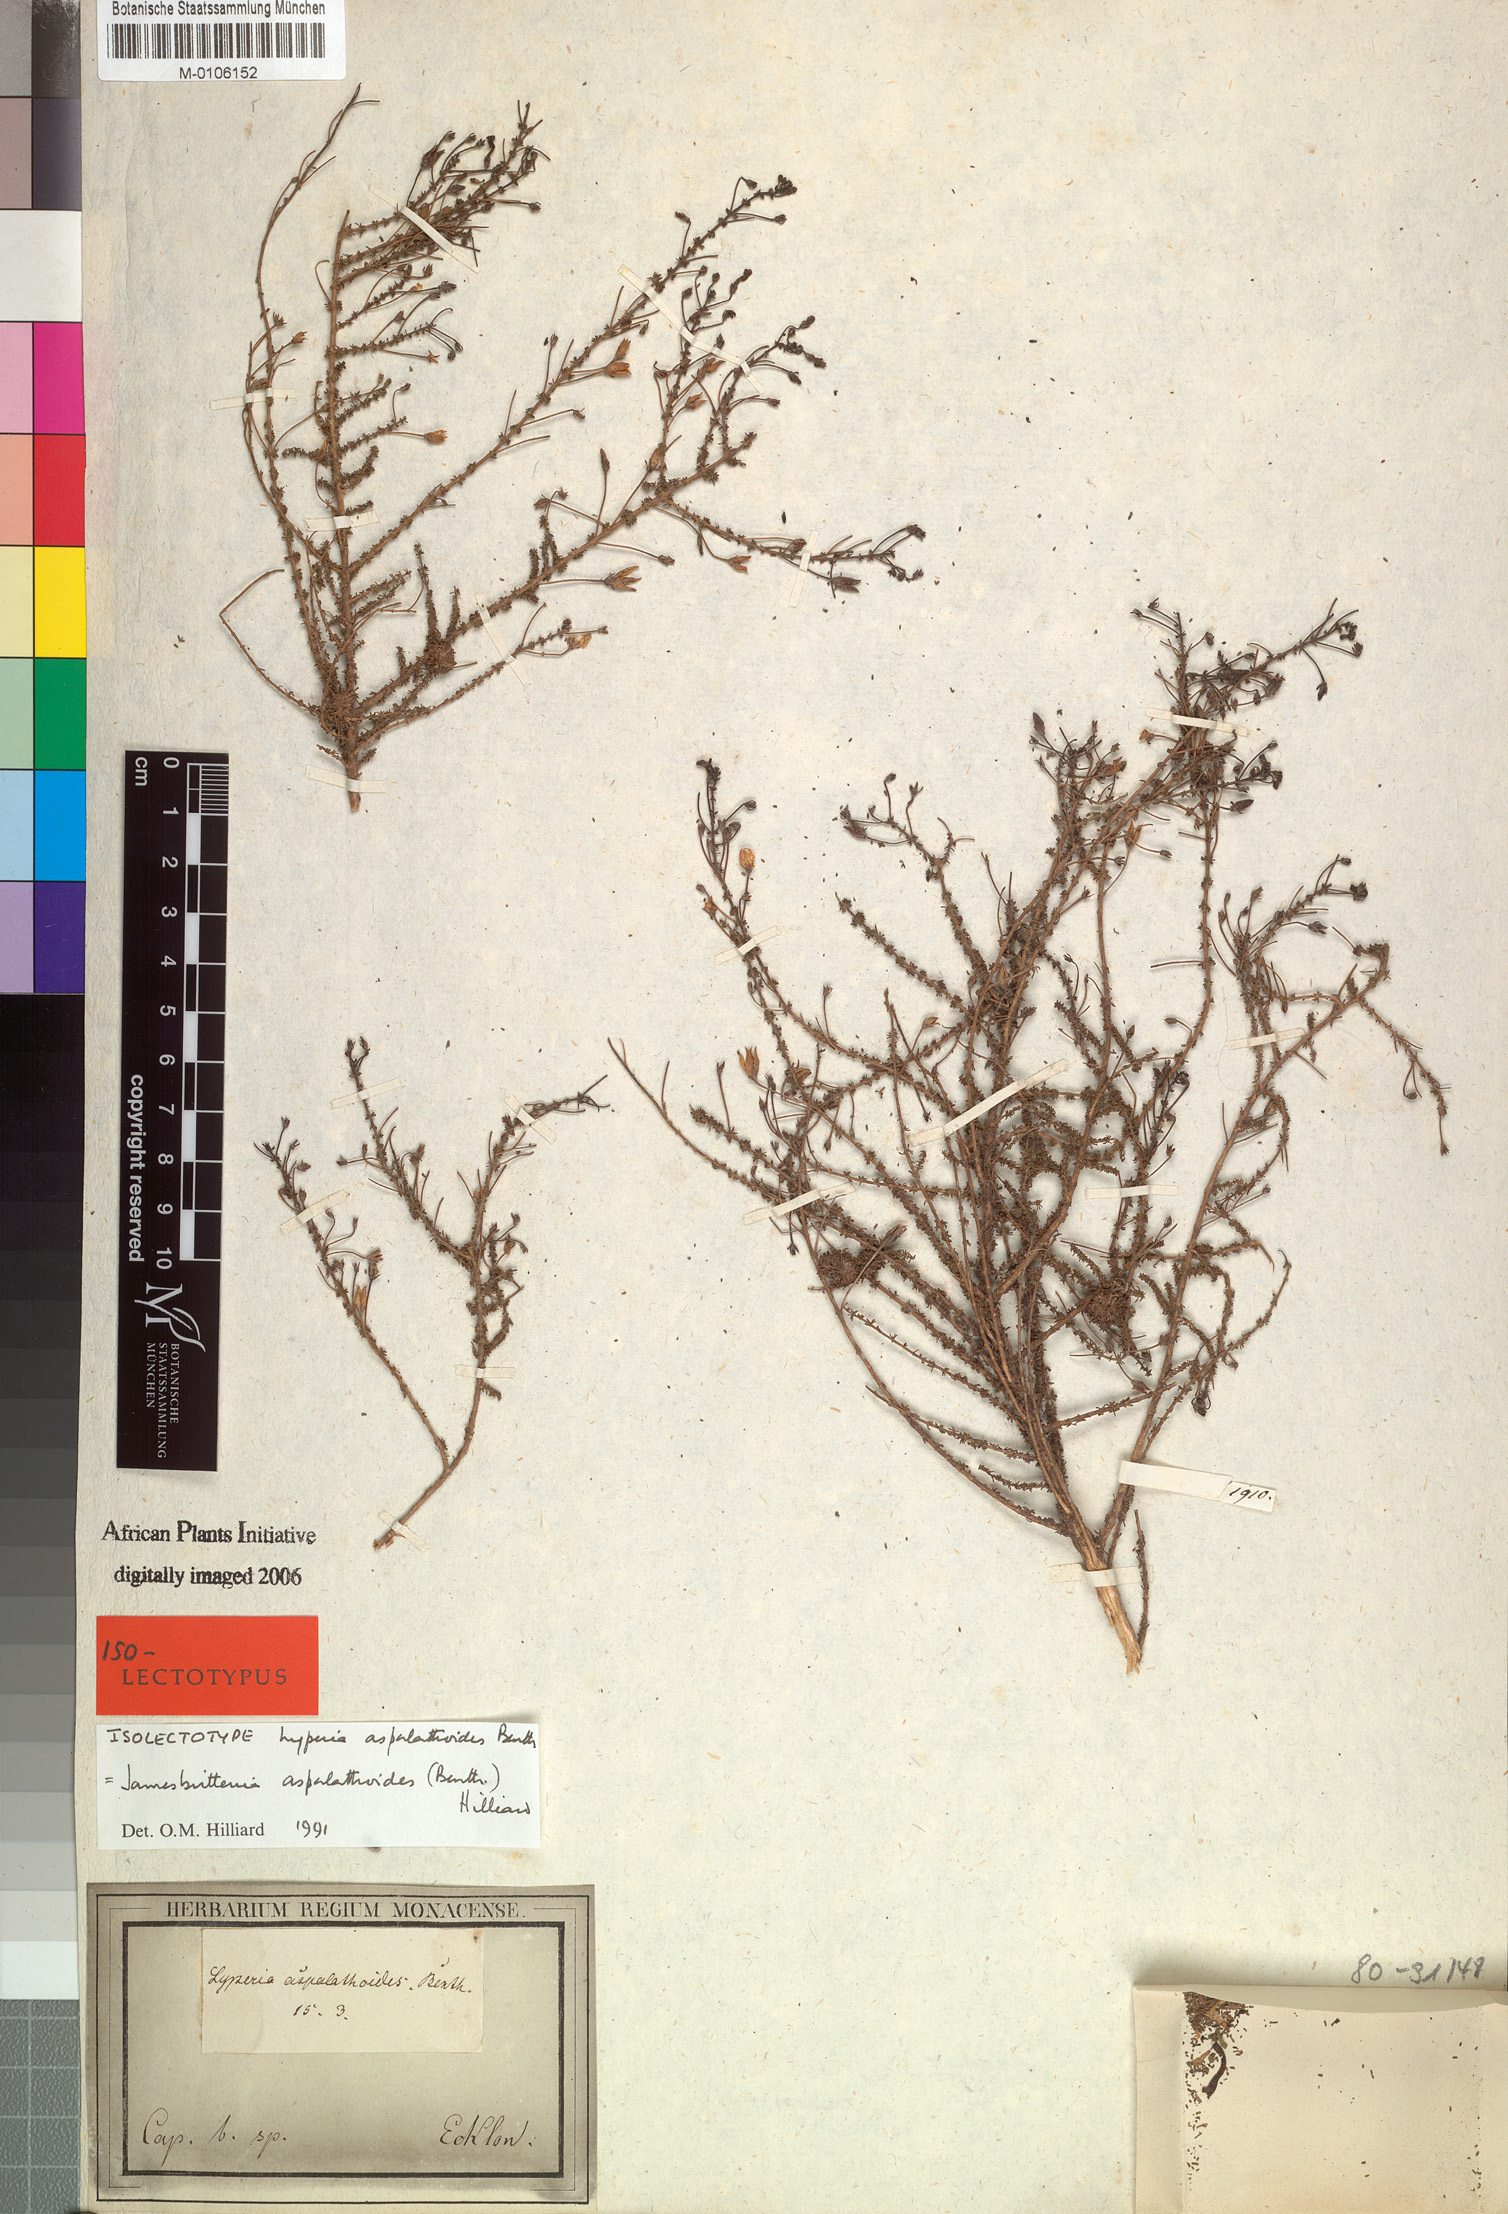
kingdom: Plantae
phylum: Tracheophyta
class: Magnoliopsida
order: Lamiales
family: Scrophulariaceae
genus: Jamesbrittenia
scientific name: Jamesbrittenia aspalathoides
